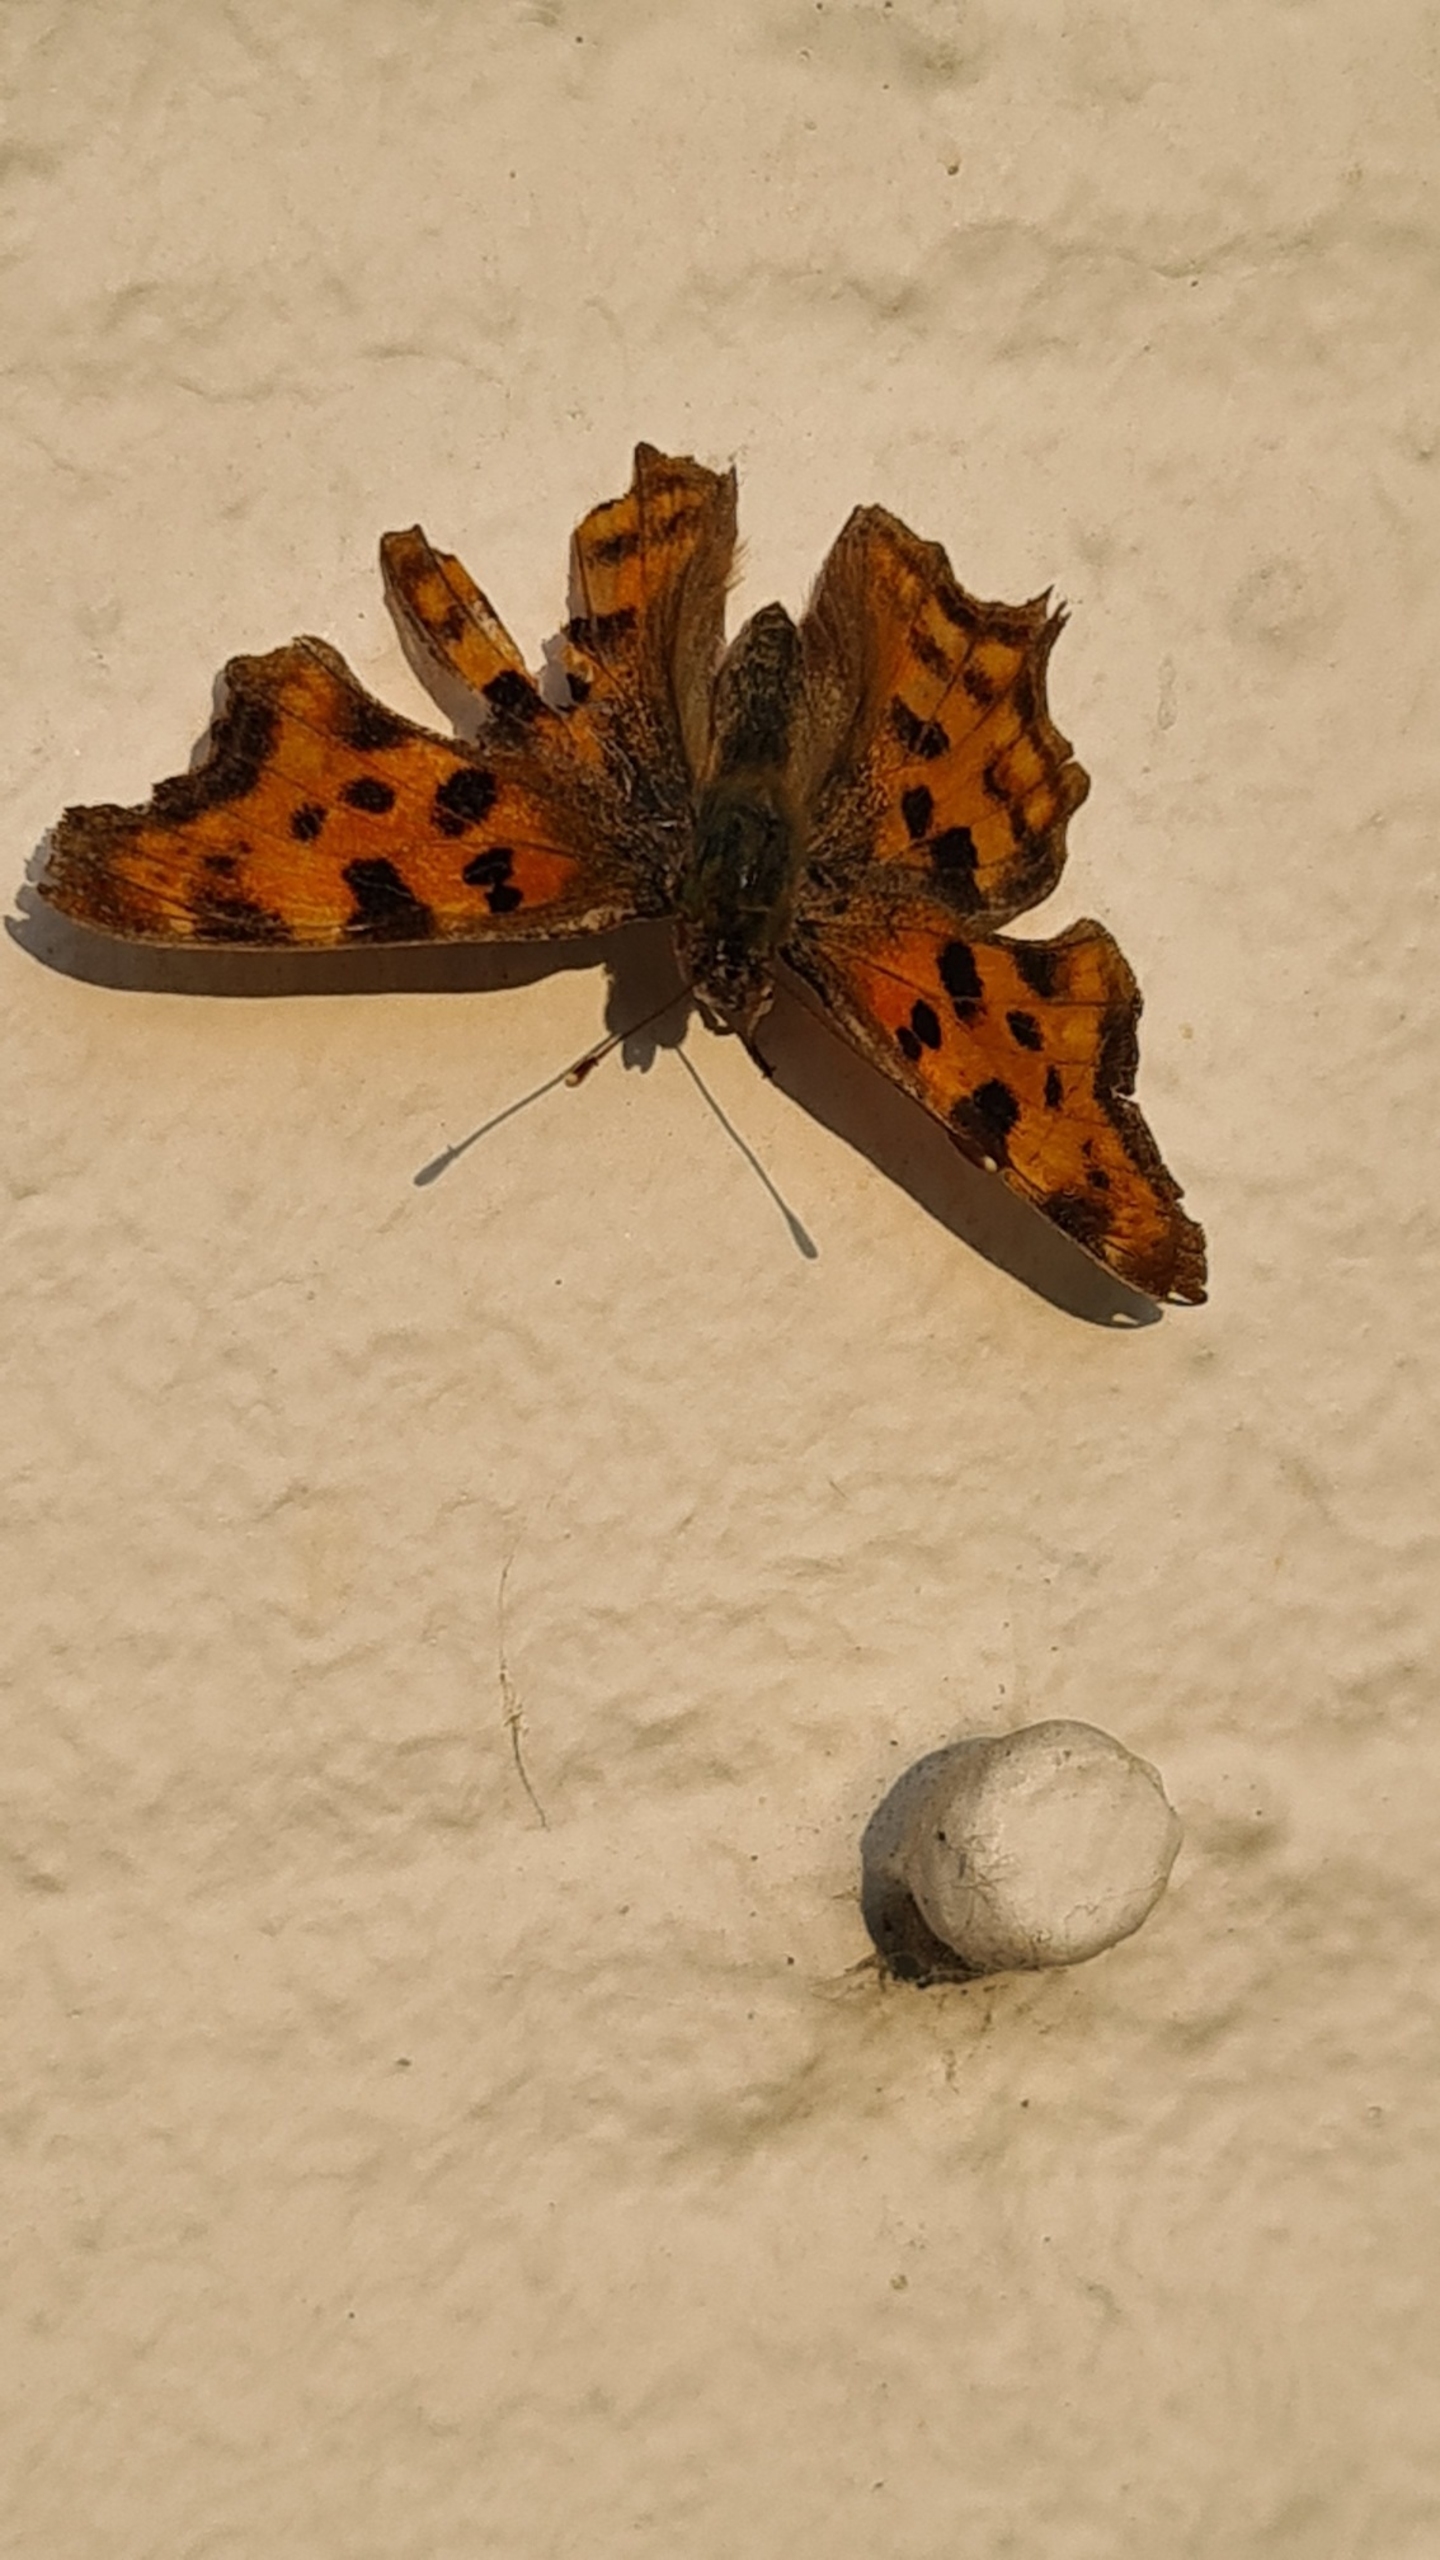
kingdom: Animalia
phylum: Arthropoda
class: Insecta
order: Lepidoptera
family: Nymphalidae
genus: Polygonia
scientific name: Polygonia c-album
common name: Det hvide C
